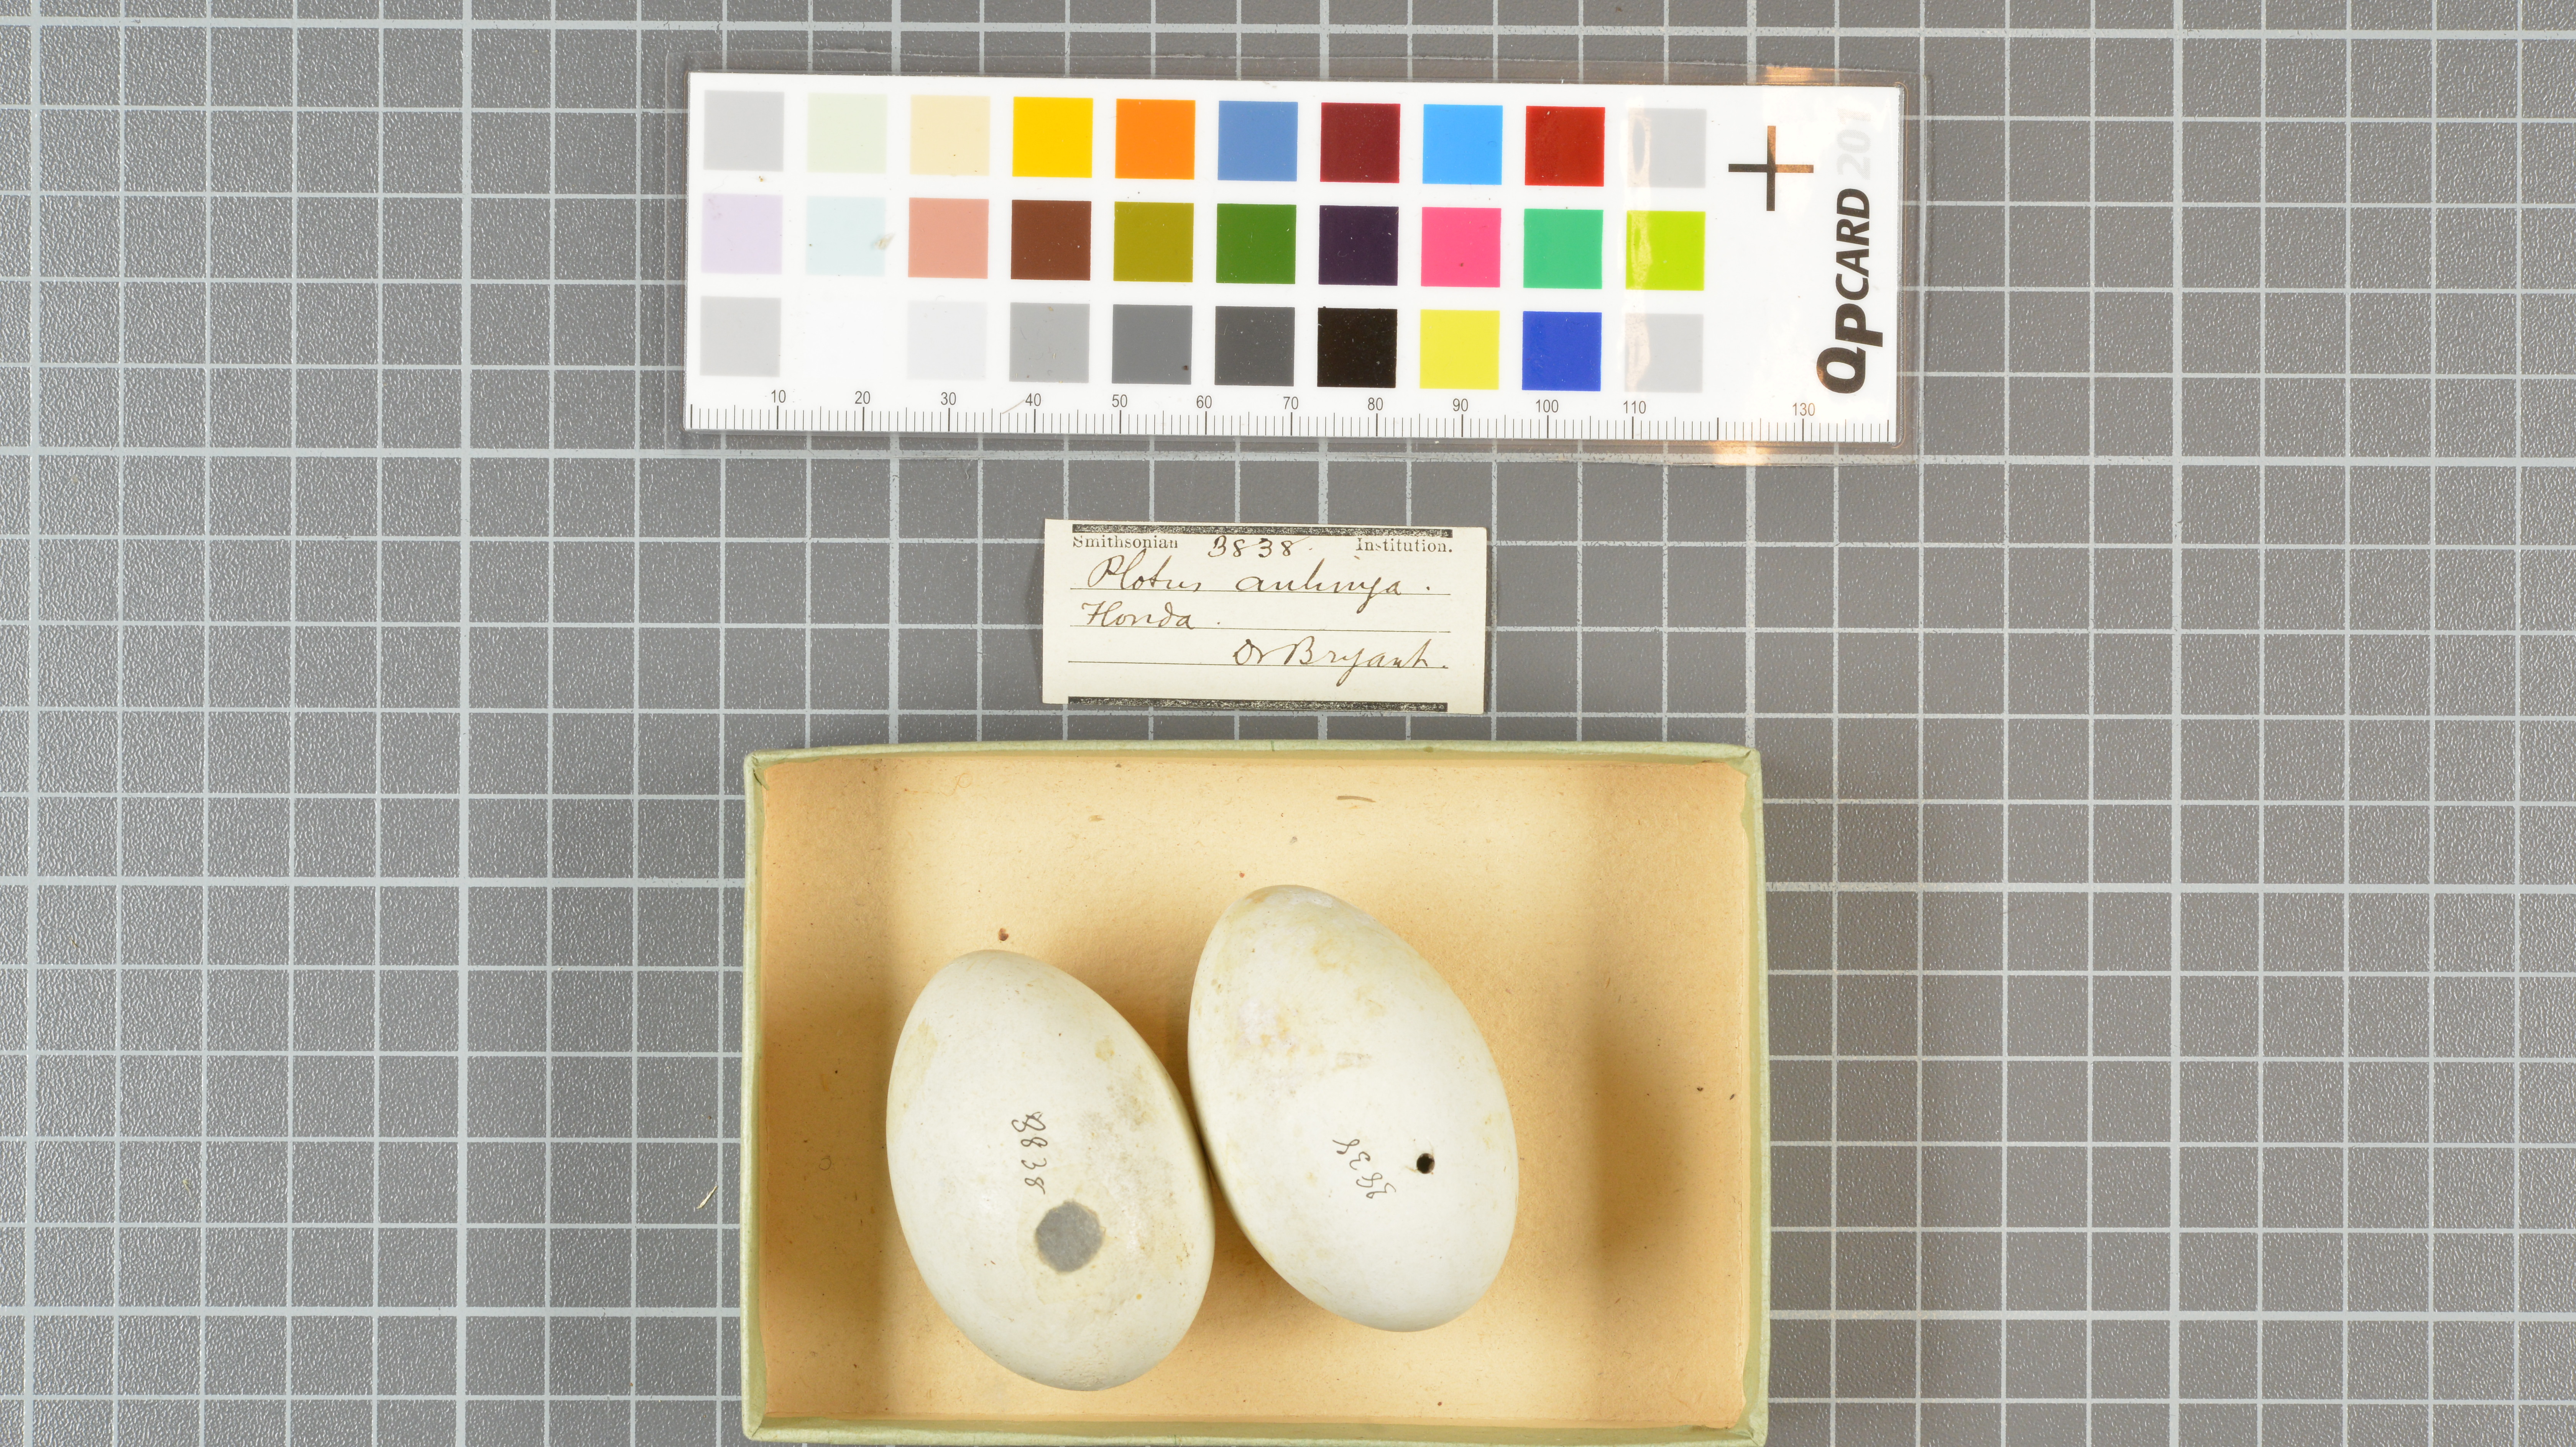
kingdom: Animalia
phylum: Chordata
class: Aves
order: Suliformes
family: Anhingidae
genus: Anhinga
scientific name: Anhinga anhinga
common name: Anhinga
